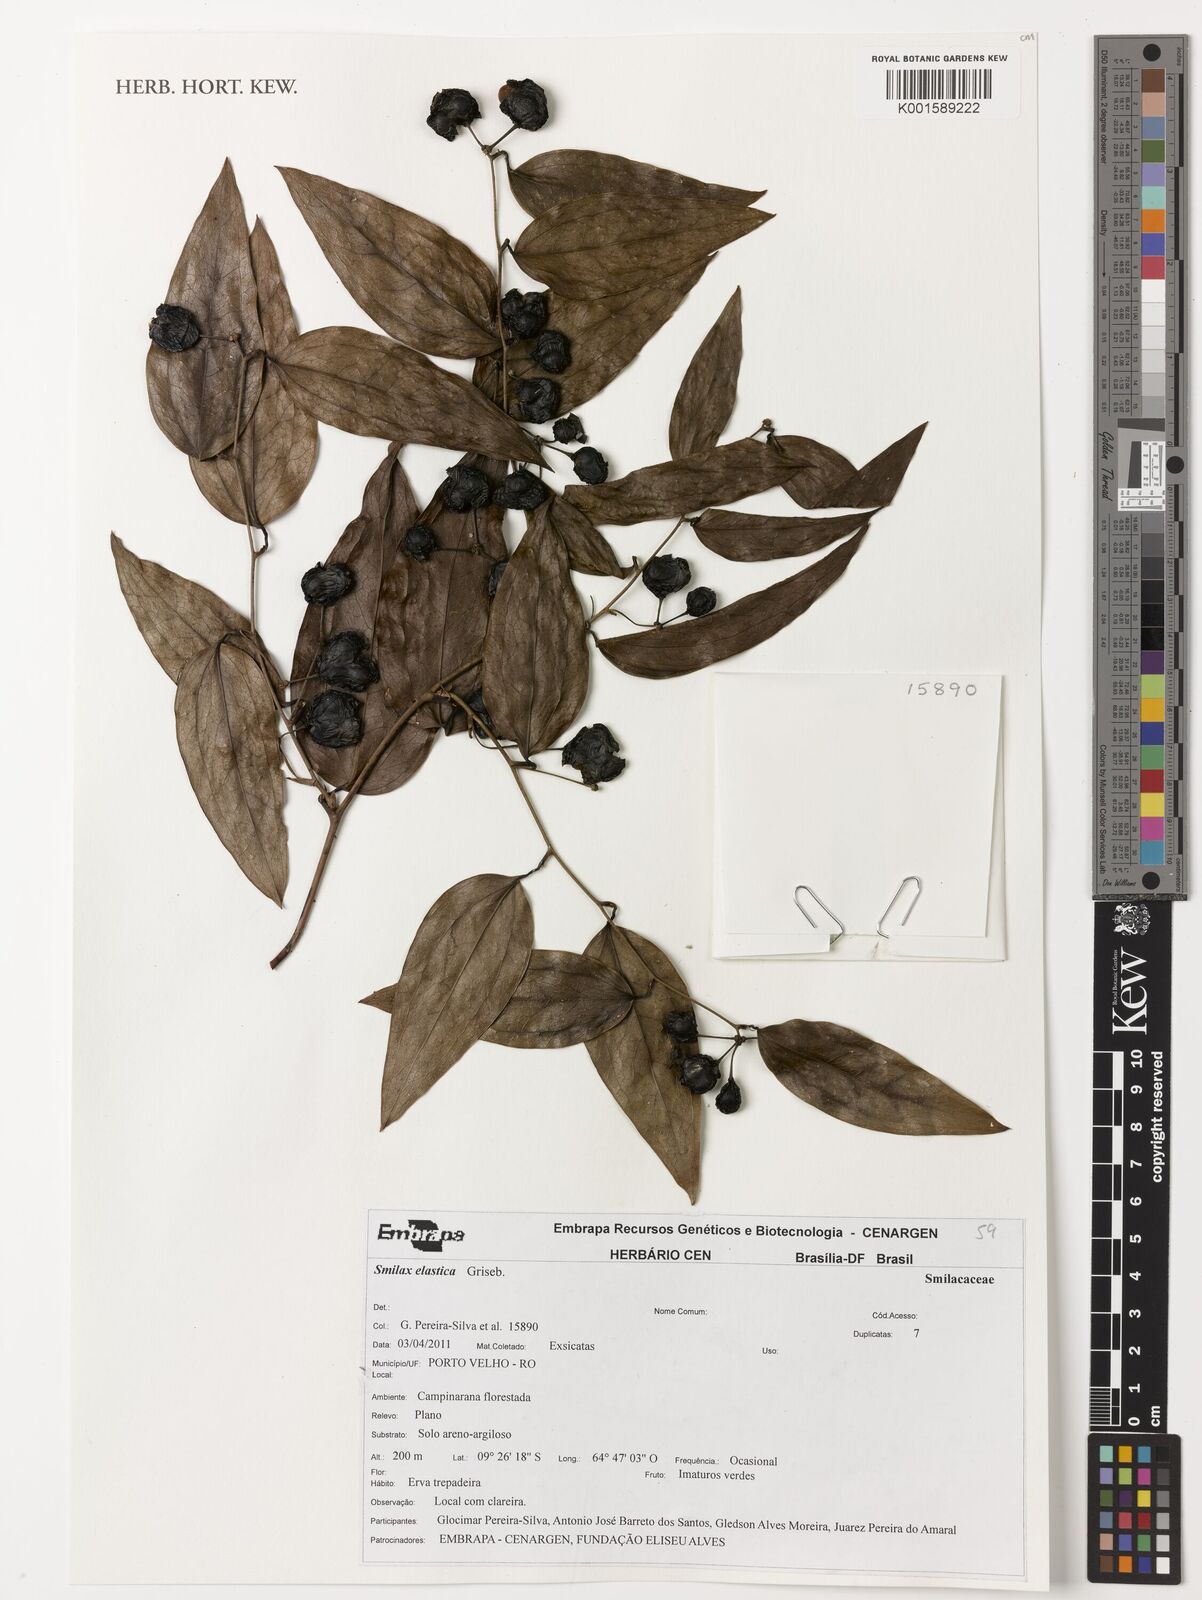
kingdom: Plantae
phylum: Tracheophyta
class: Liliopsida
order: Liliales
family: Smilacaceae
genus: Smilax
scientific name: Smilax elastica
